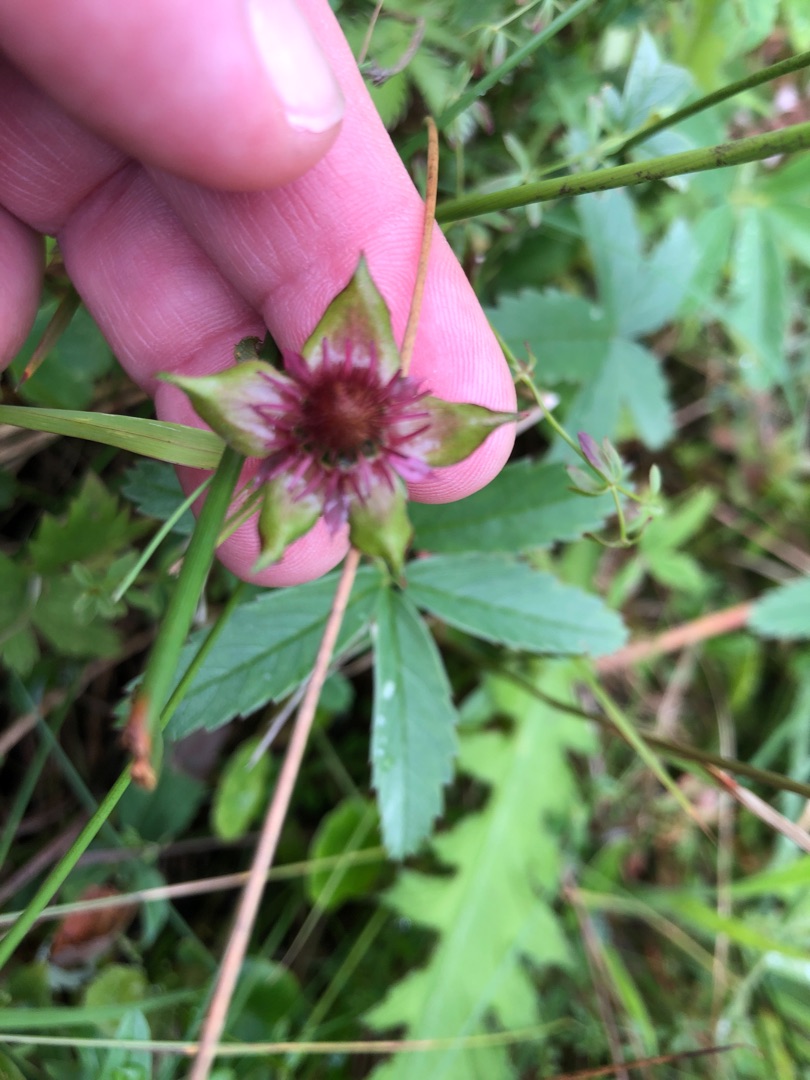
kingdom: Plantae
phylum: Tracheophyta
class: Magnoliopsida
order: Rosales
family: Rosaceae
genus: Comarum
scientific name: Comarum palustre
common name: Kragefod
